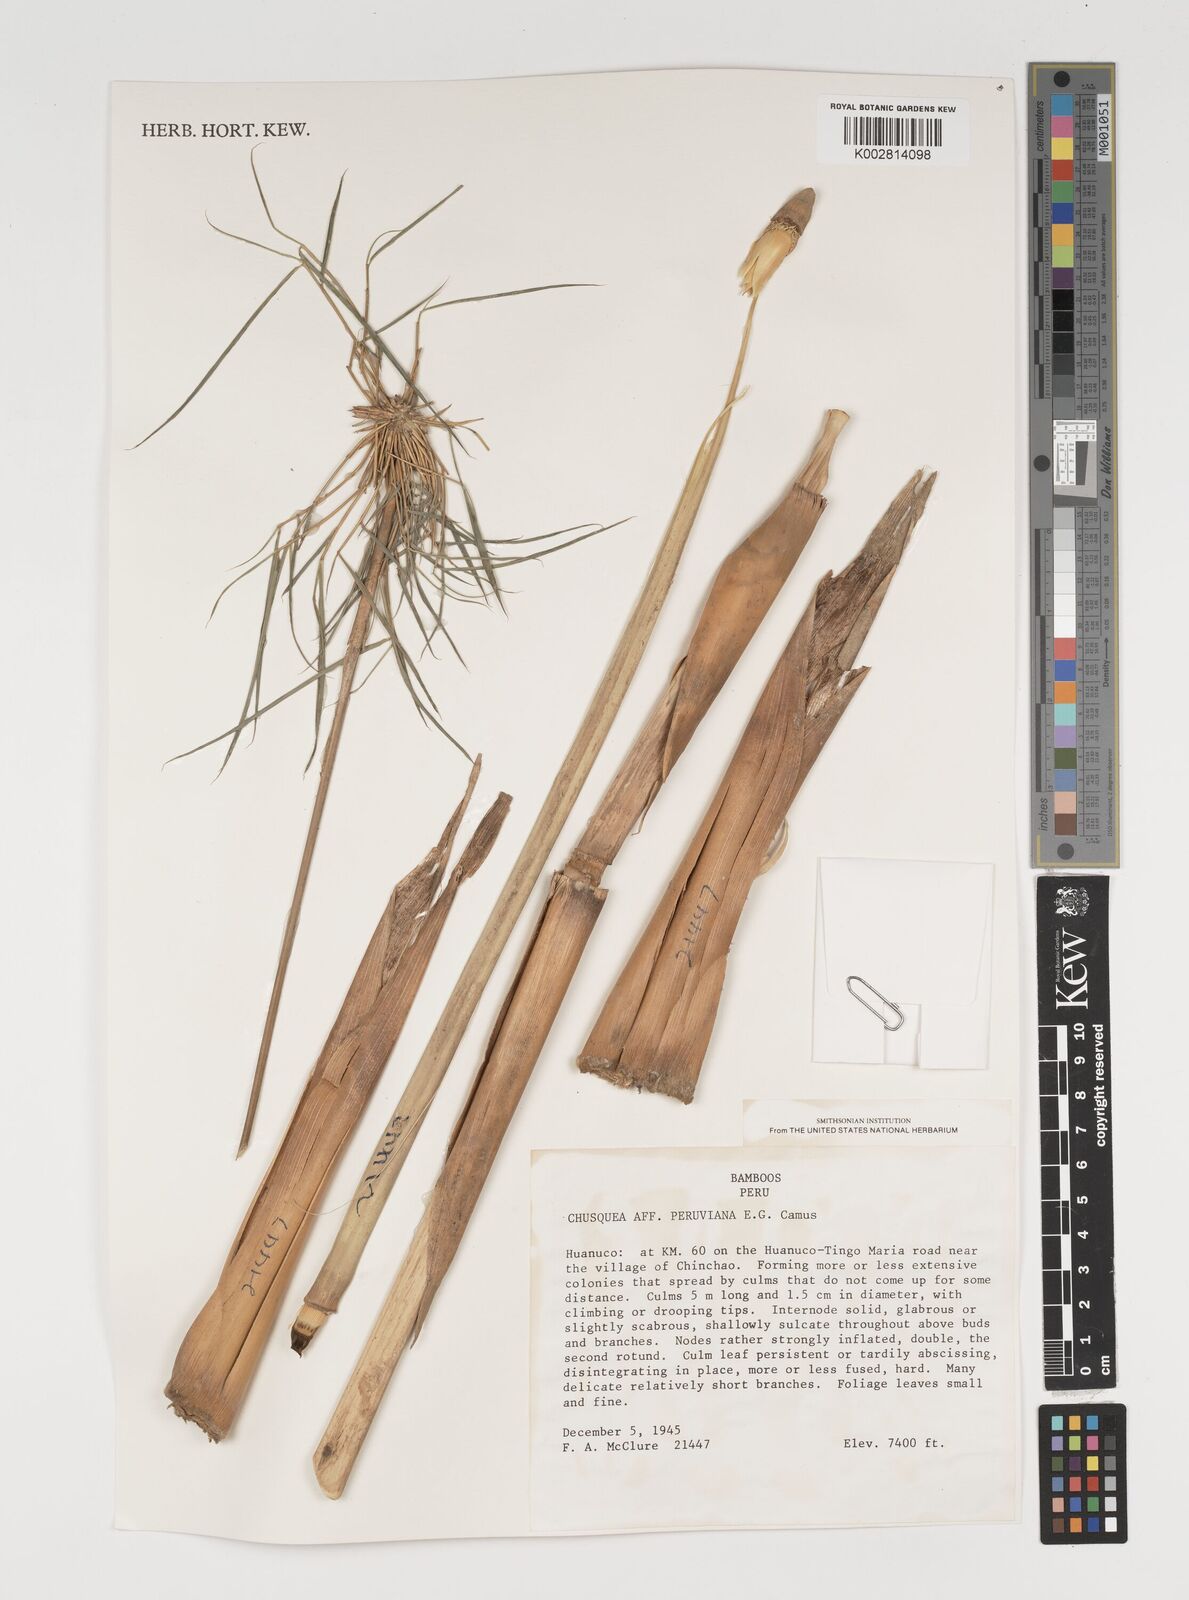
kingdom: Plantae
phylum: Tracheophyta
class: Liliopsida
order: Poales
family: Poaceae
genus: Chusquea
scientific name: Chusquea
